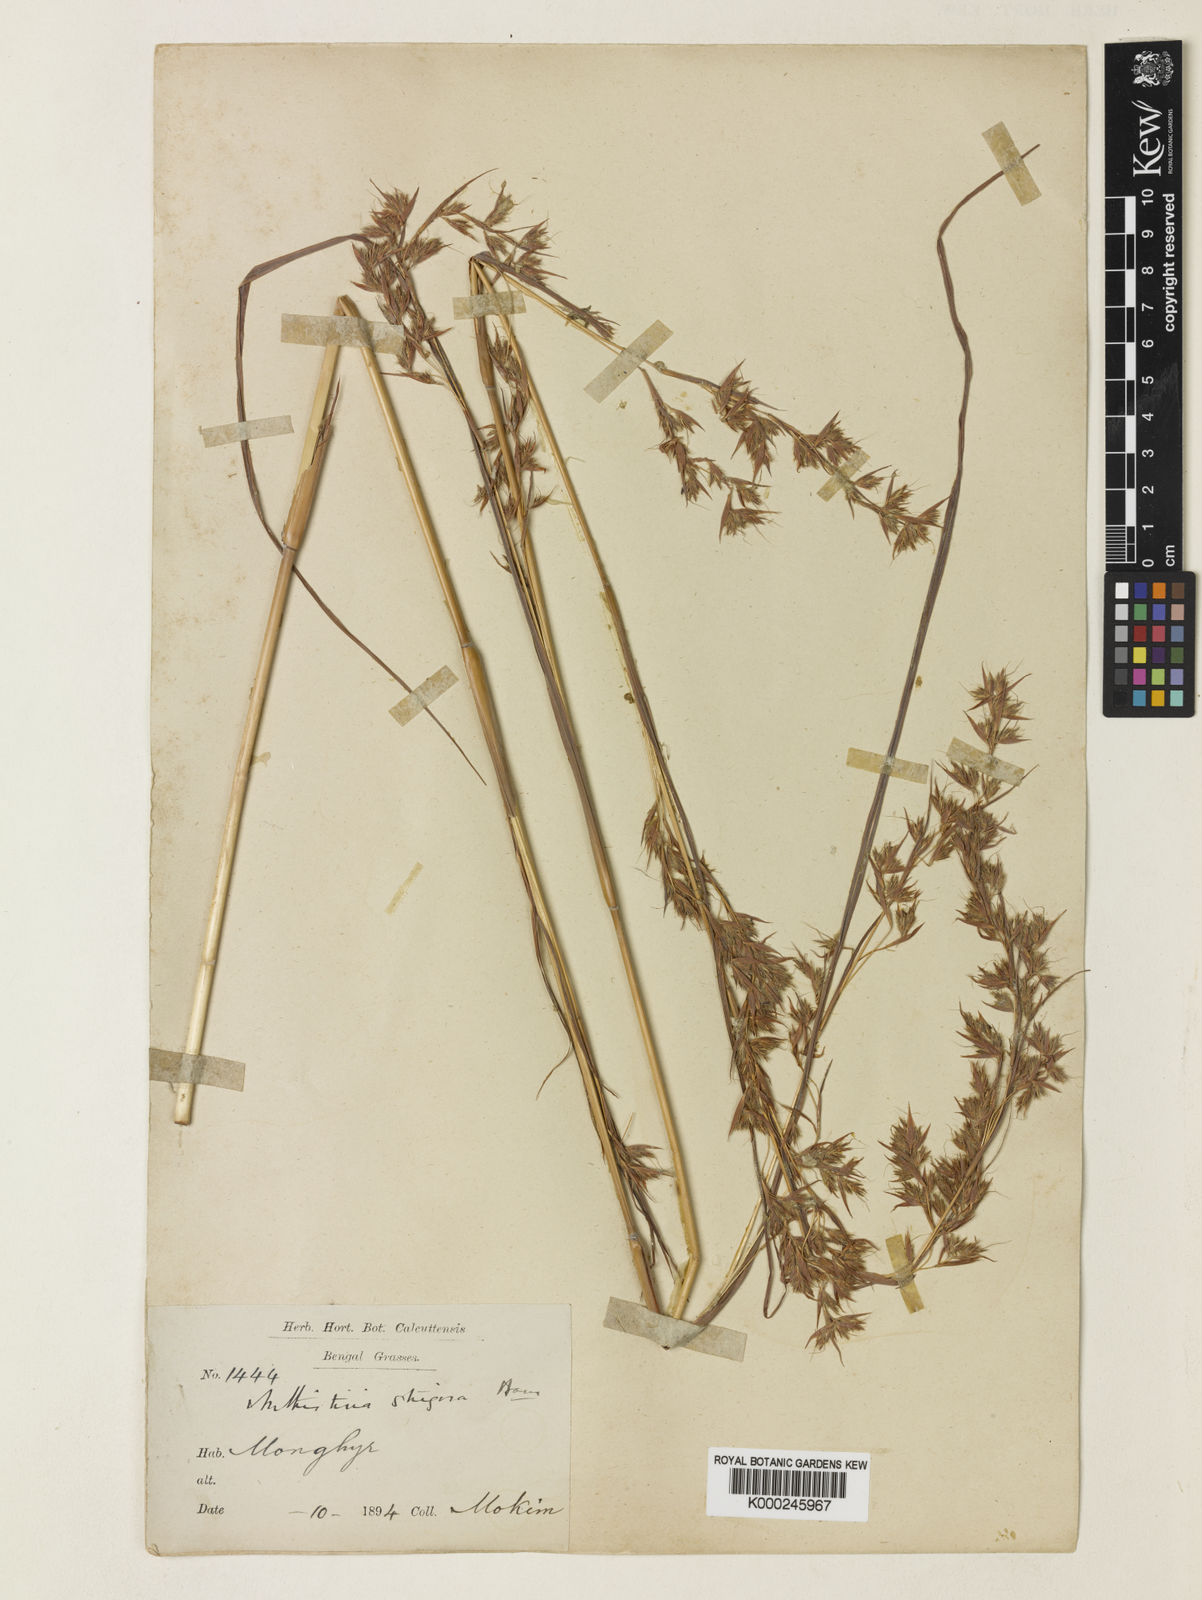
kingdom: Plantae
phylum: Tracheophyta
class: Liliopsida
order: Poales
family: Poaceae
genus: Themeda
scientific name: Themeda strigosa
